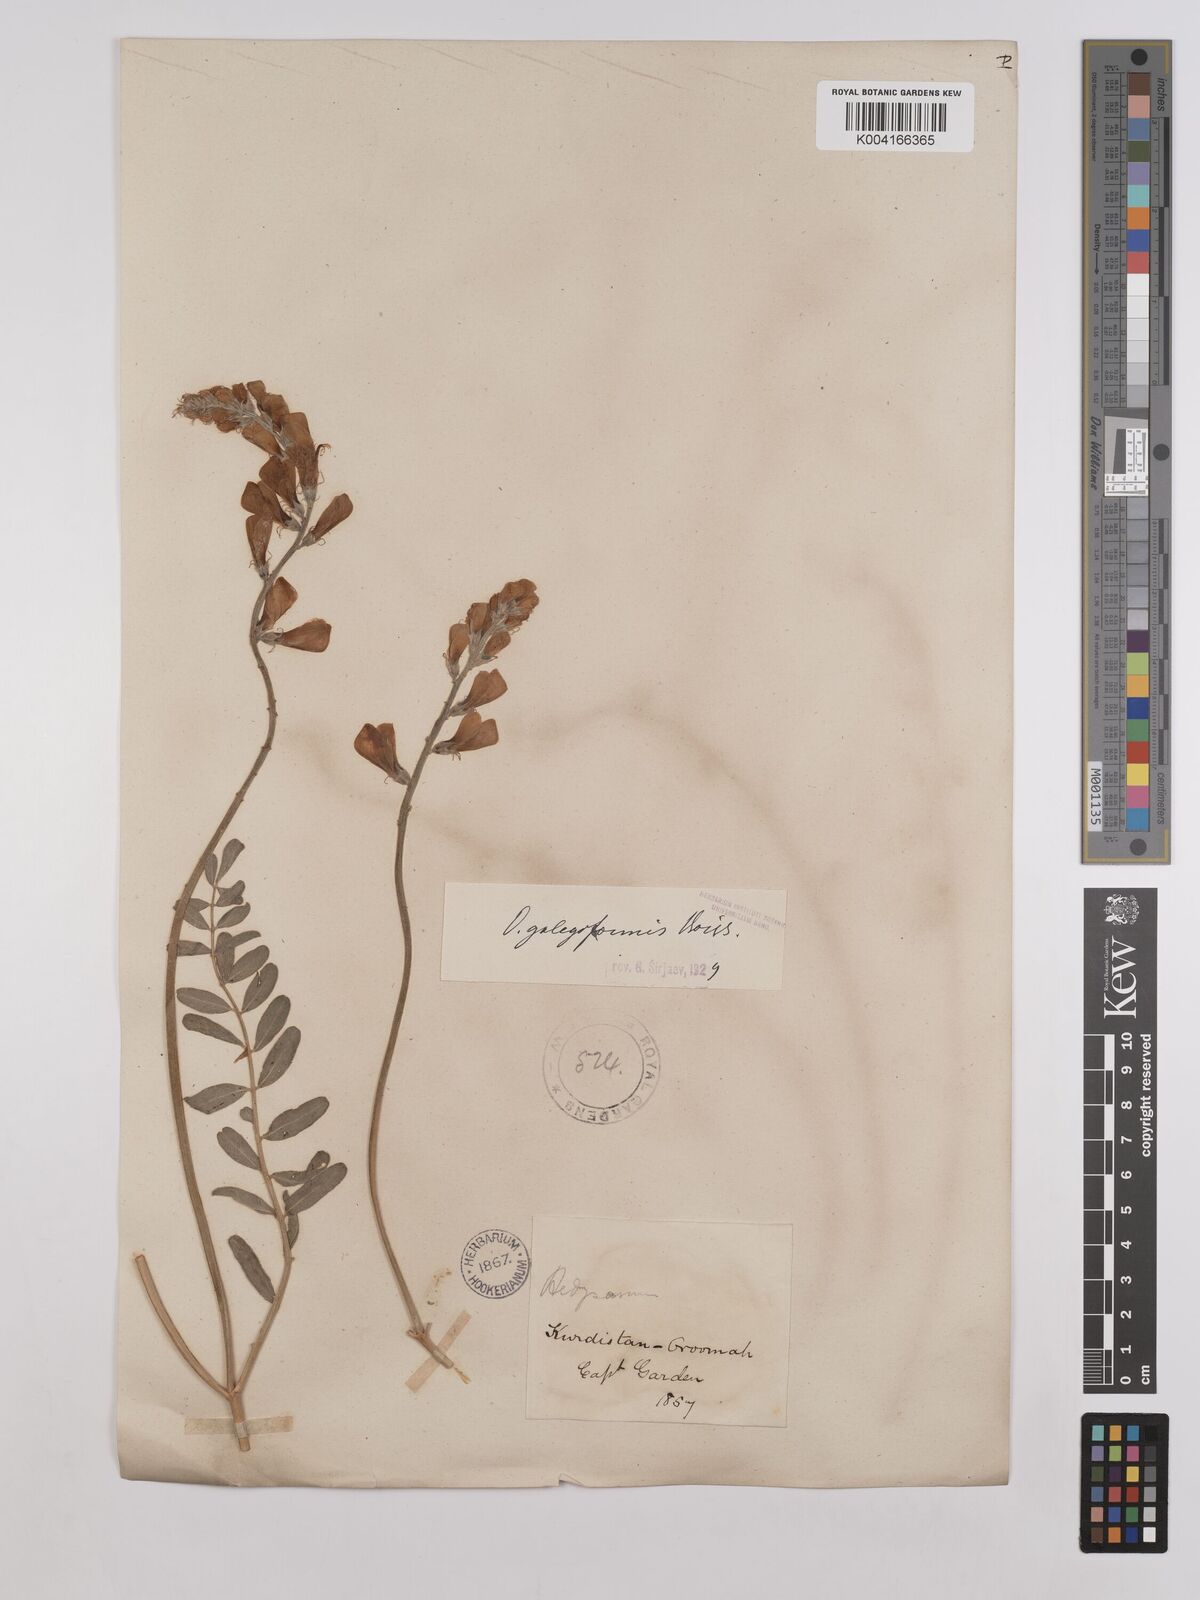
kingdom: Plantae
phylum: Tracheophyta
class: Magnoliopsida
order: Fabales
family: Fabaceae
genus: Onobrychis
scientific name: Onobrychis galegifolia
